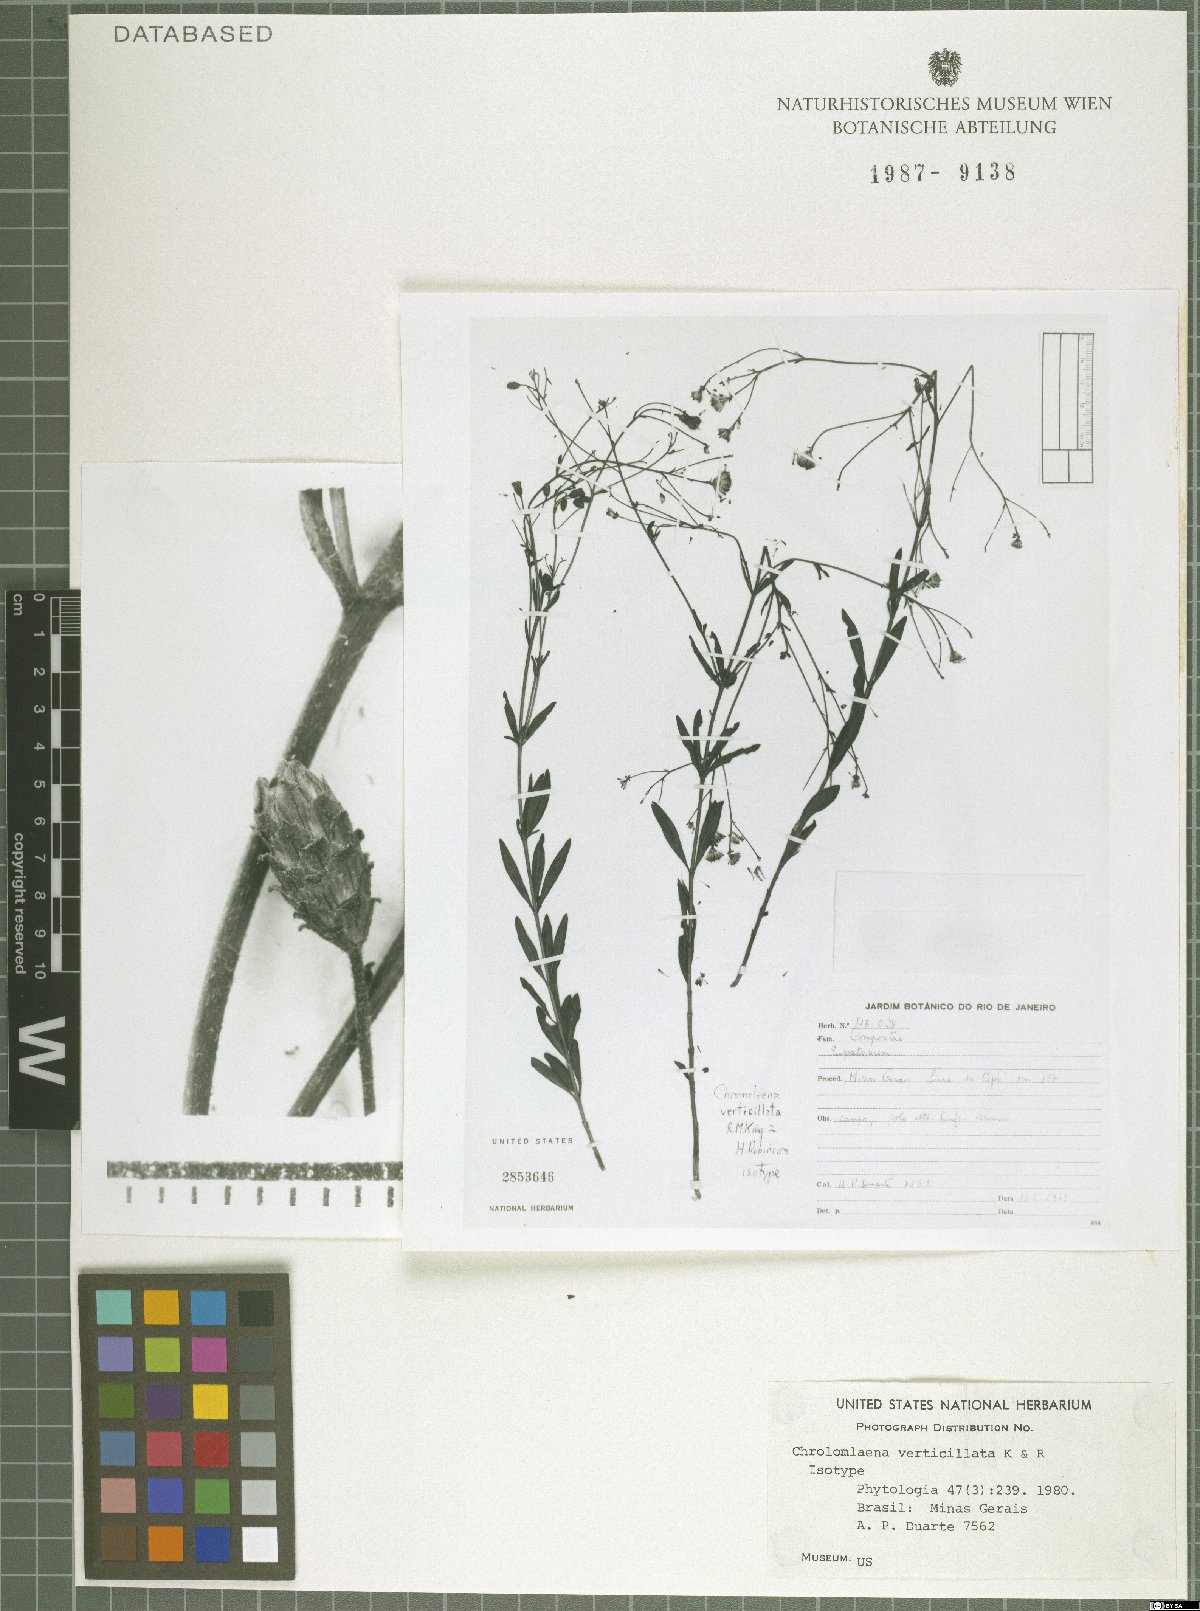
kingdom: Plantae
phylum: Tracheophyta
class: Magnoliopsida
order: Asterales
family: Asteraceae
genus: Chromolaena
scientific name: Chromolaena verticillata
